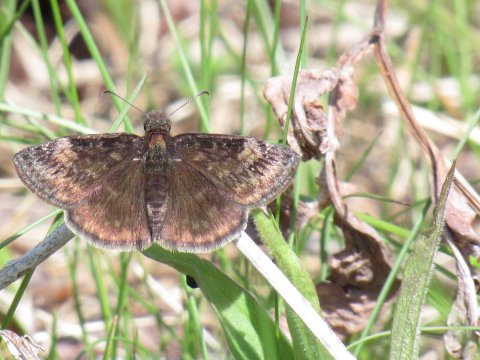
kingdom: Animalia
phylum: Arthropoda
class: Insecta
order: Lepidoptera
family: Hesperiidae
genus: Gesta
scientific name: Gesta
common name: Wild Indigo Duskywing
